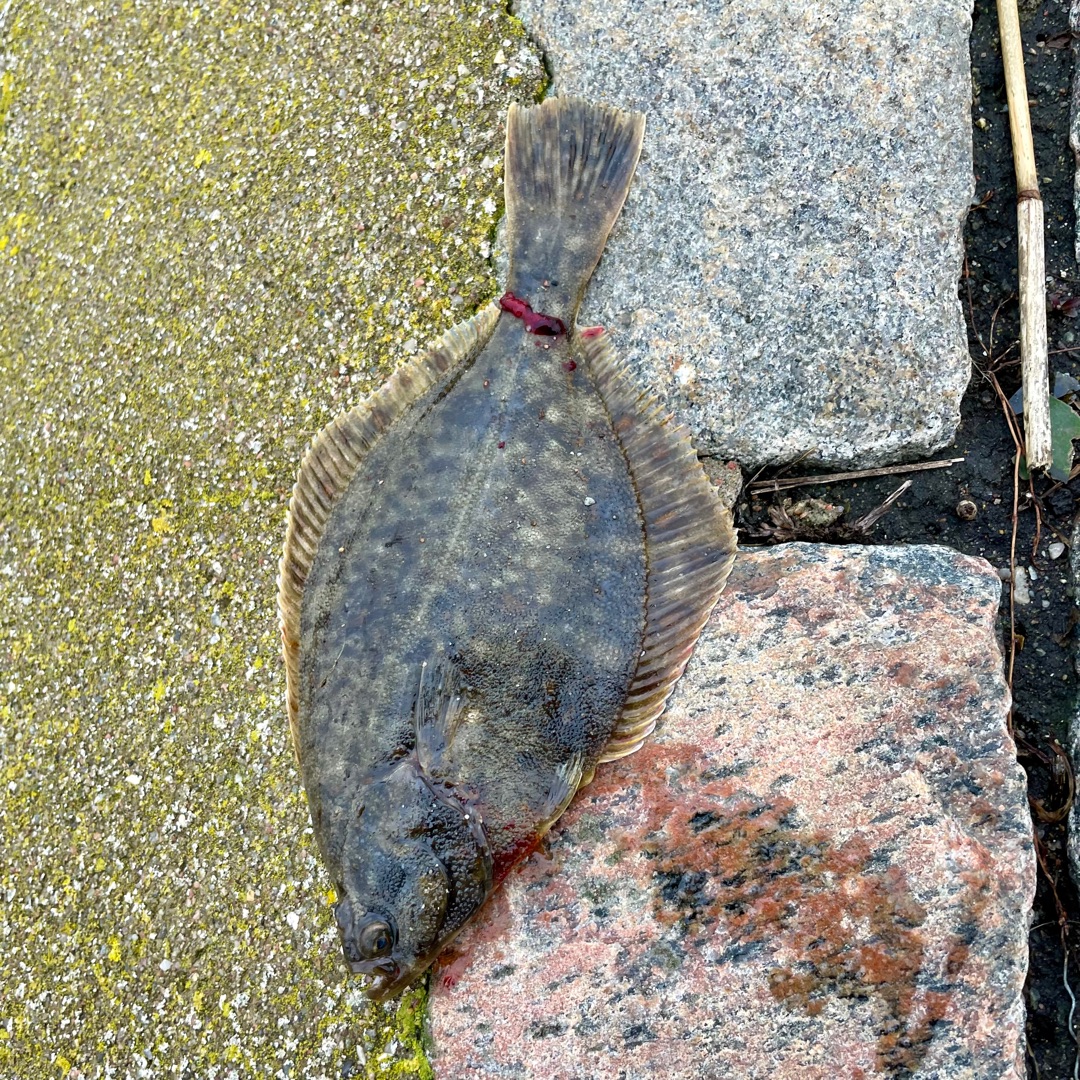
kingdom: Animalia
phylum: Chordata
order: Pleuronectiformes
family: Pleuronectidae
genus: Platichthys
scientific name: Platichthys flesus
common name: Skrubbe
